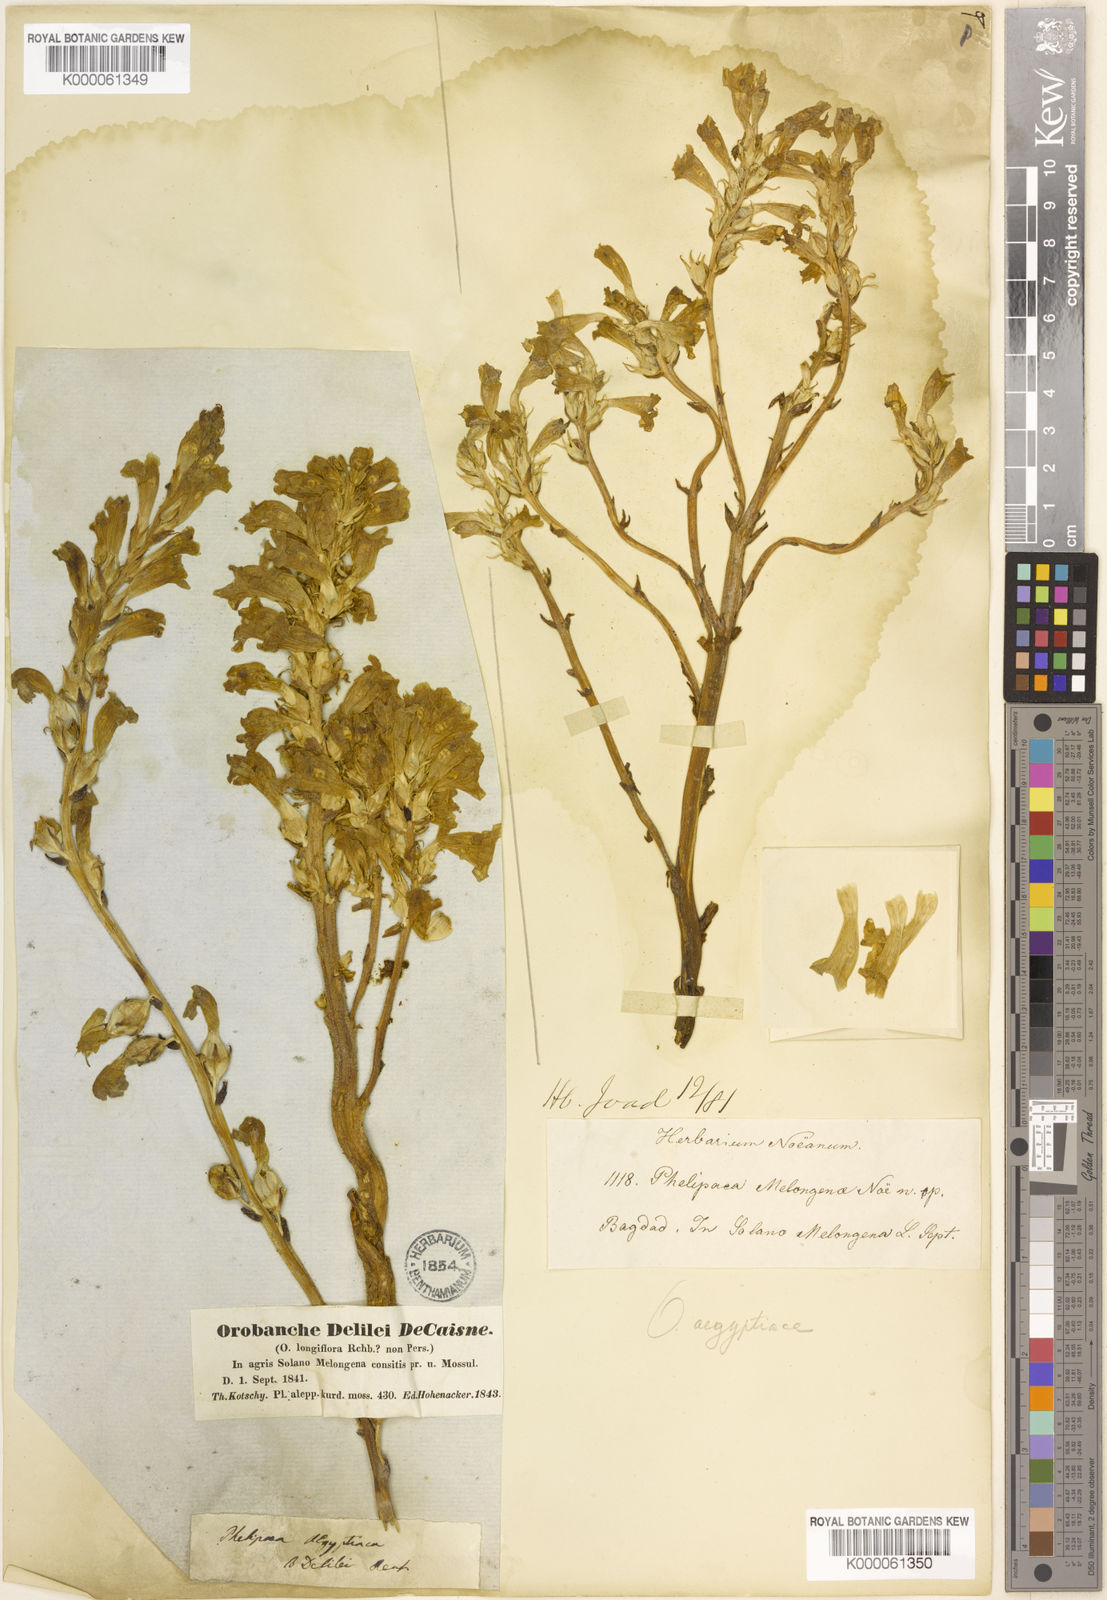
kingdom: Plantae
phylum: Tracheophyta
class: Magnoliopsida
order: Lamiales
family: Orobanchaceae
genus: Phelipanche
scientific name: Phelipanche aegyptiaca
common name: Egyptian broomrape
